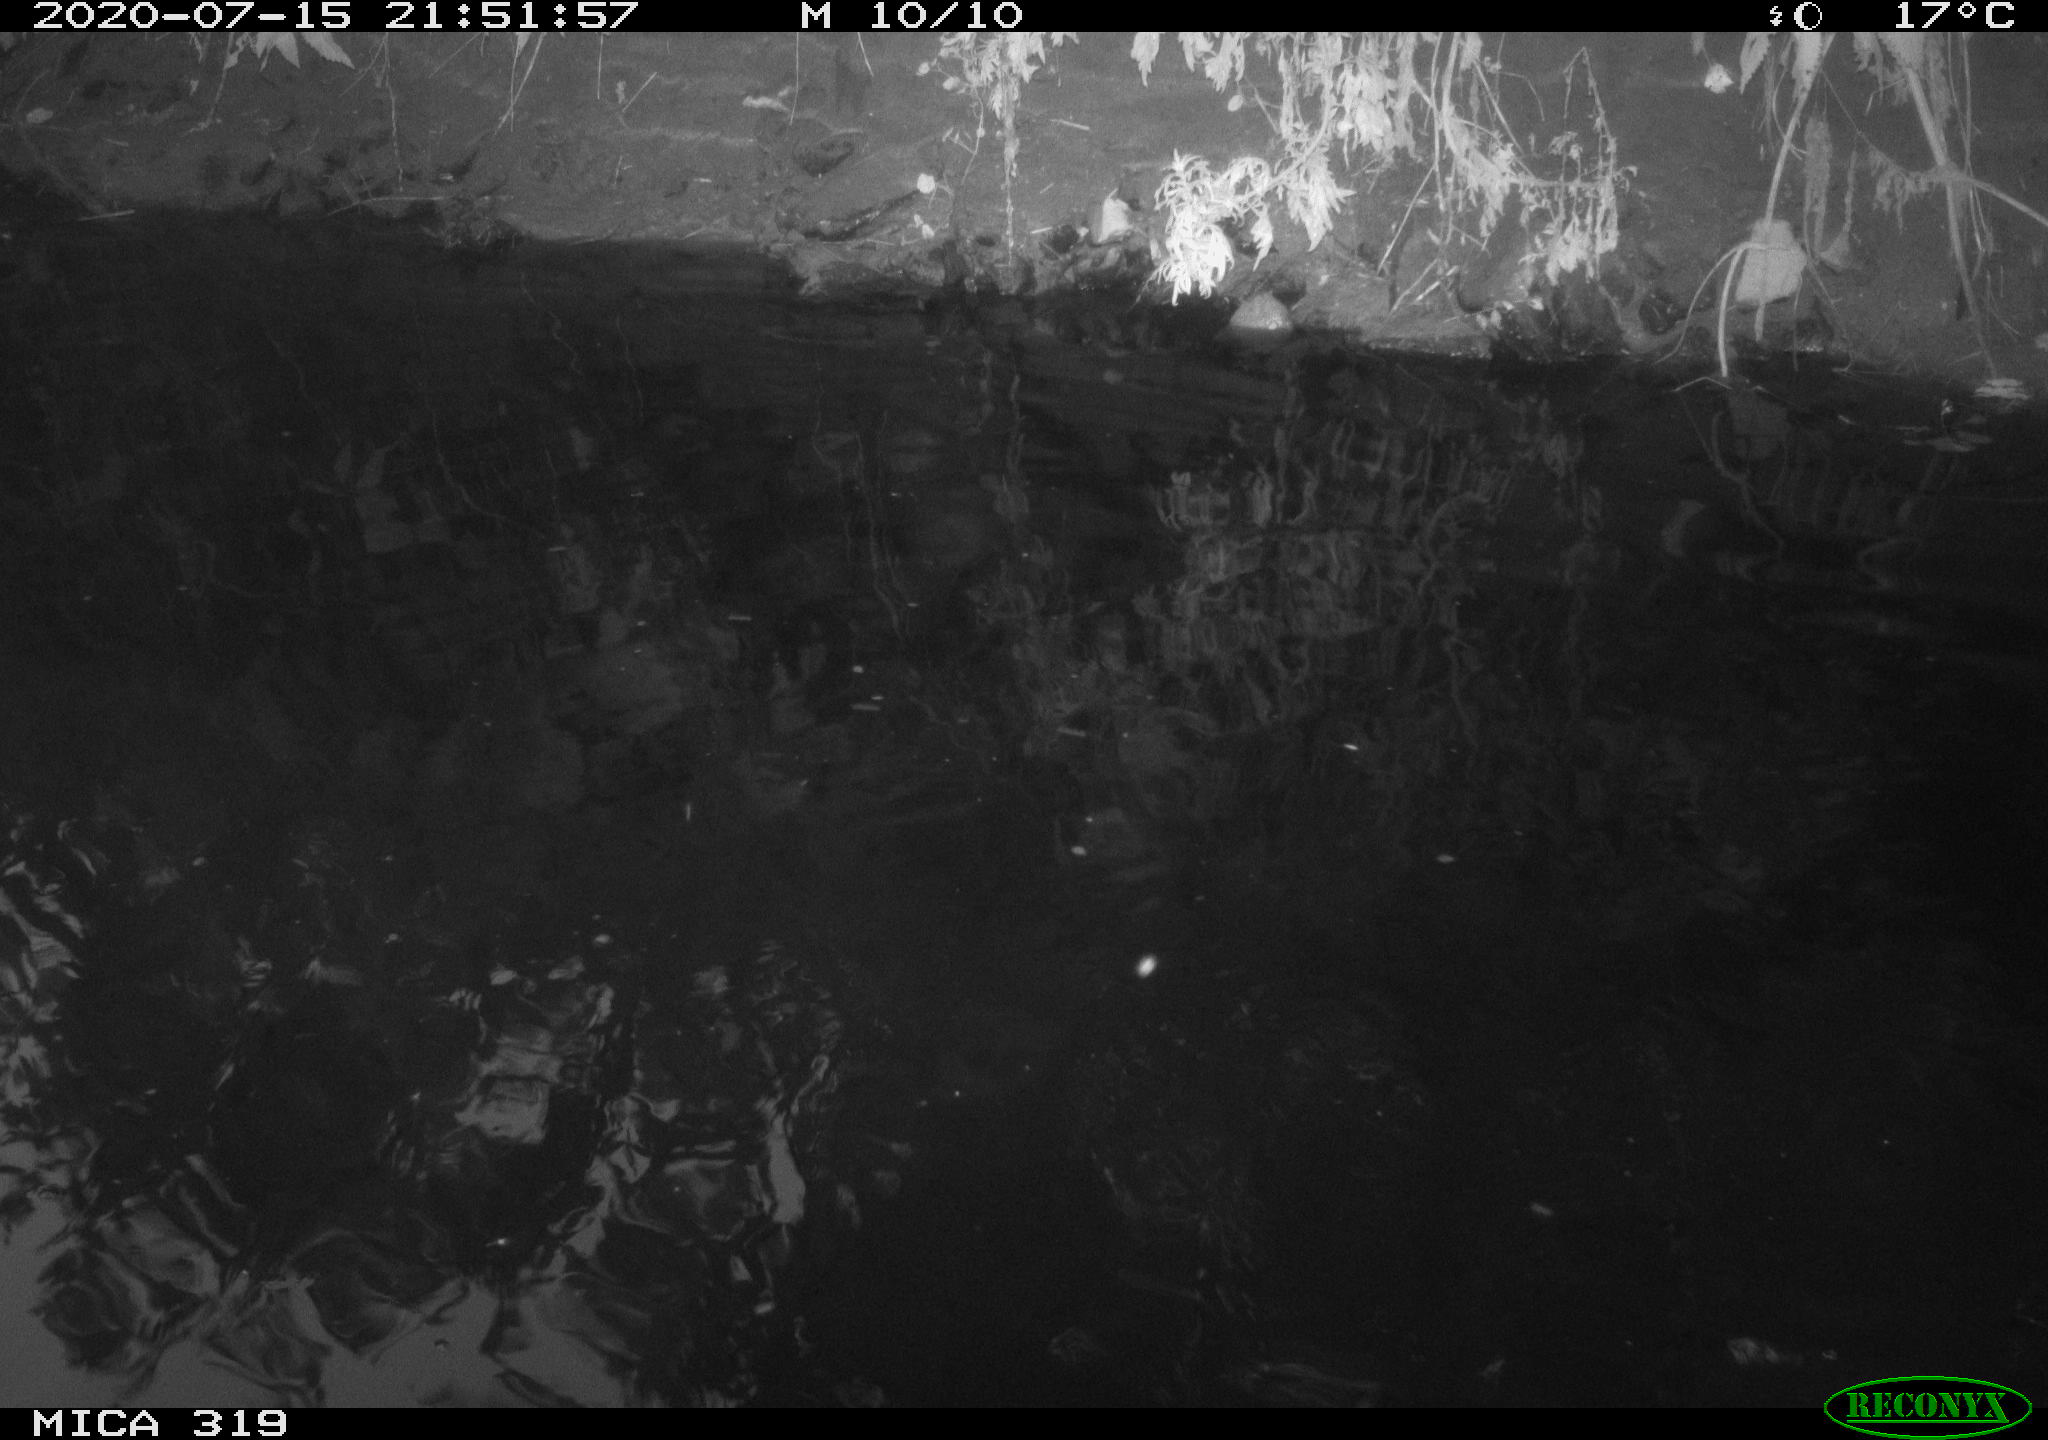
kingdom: Animalia
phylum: Chordata
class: Aves
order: Anseriformes
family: Anatidae
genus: Anas
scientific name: Anas platyrhynchos
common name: Mallard
